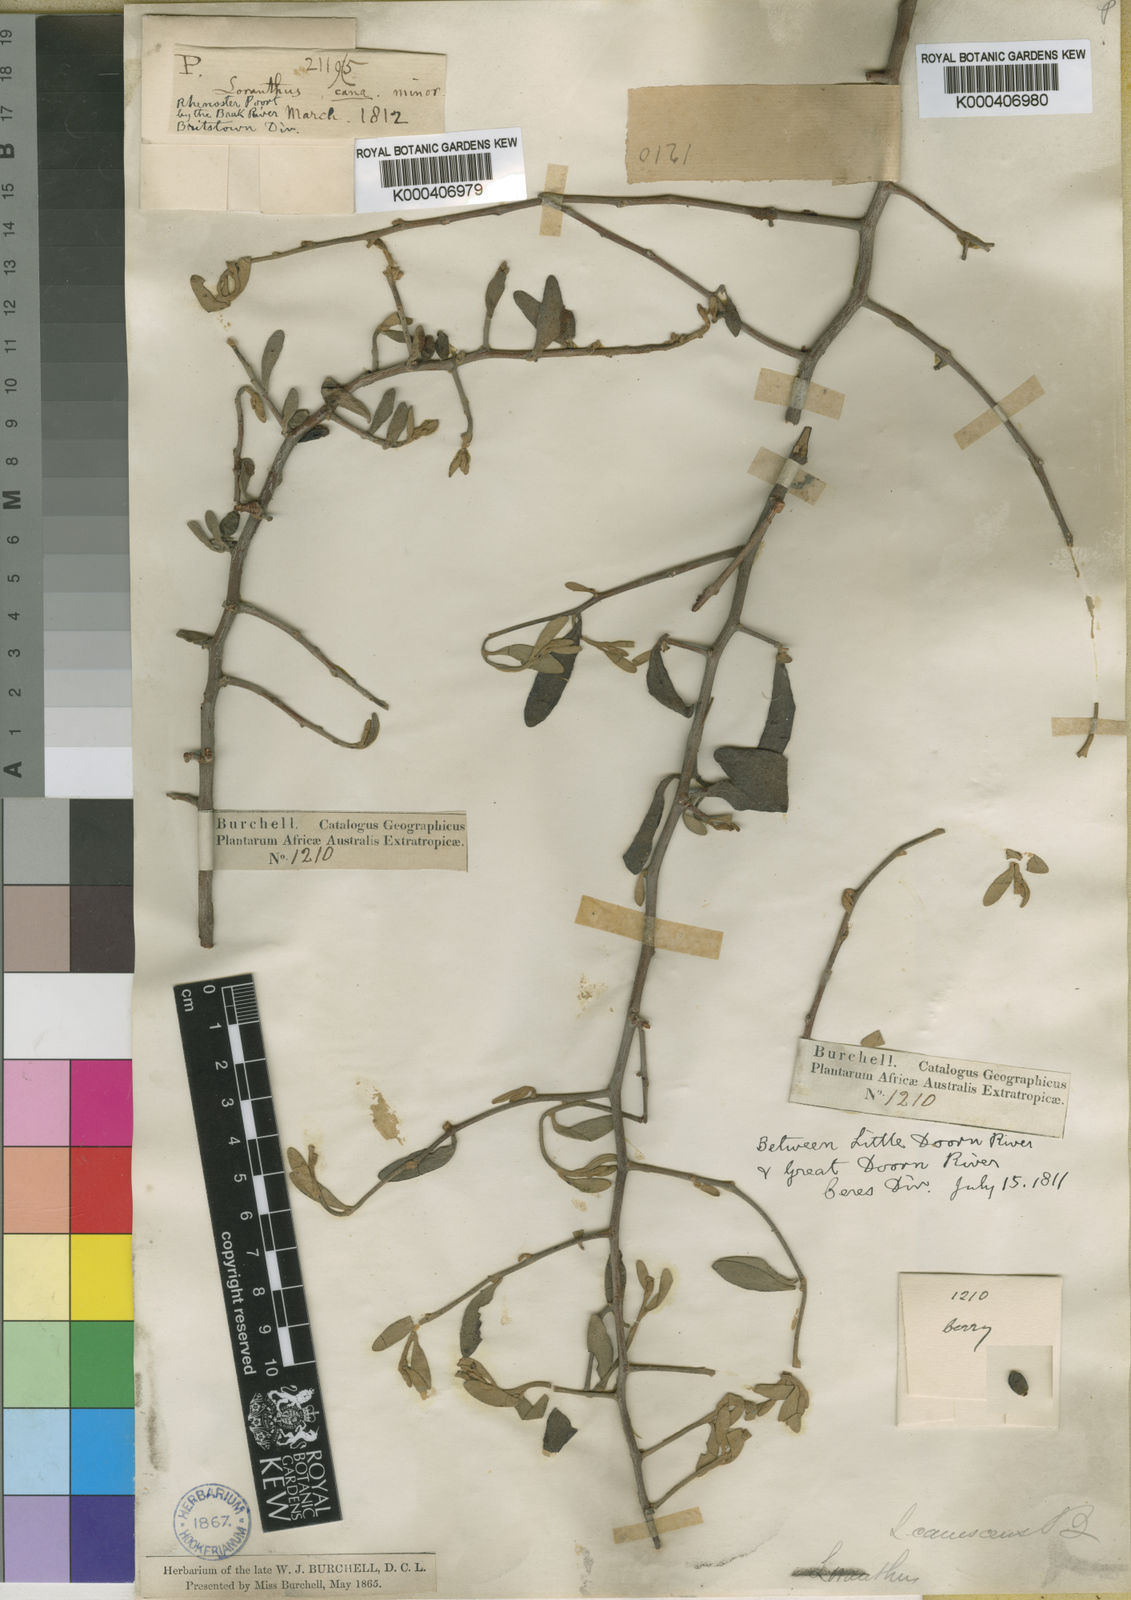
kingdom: Plantae
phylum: Tracheophyta
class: Magnoliopsida
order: Santalales
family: Loranthaceae
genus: Septulina
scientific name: Septulina glauca
